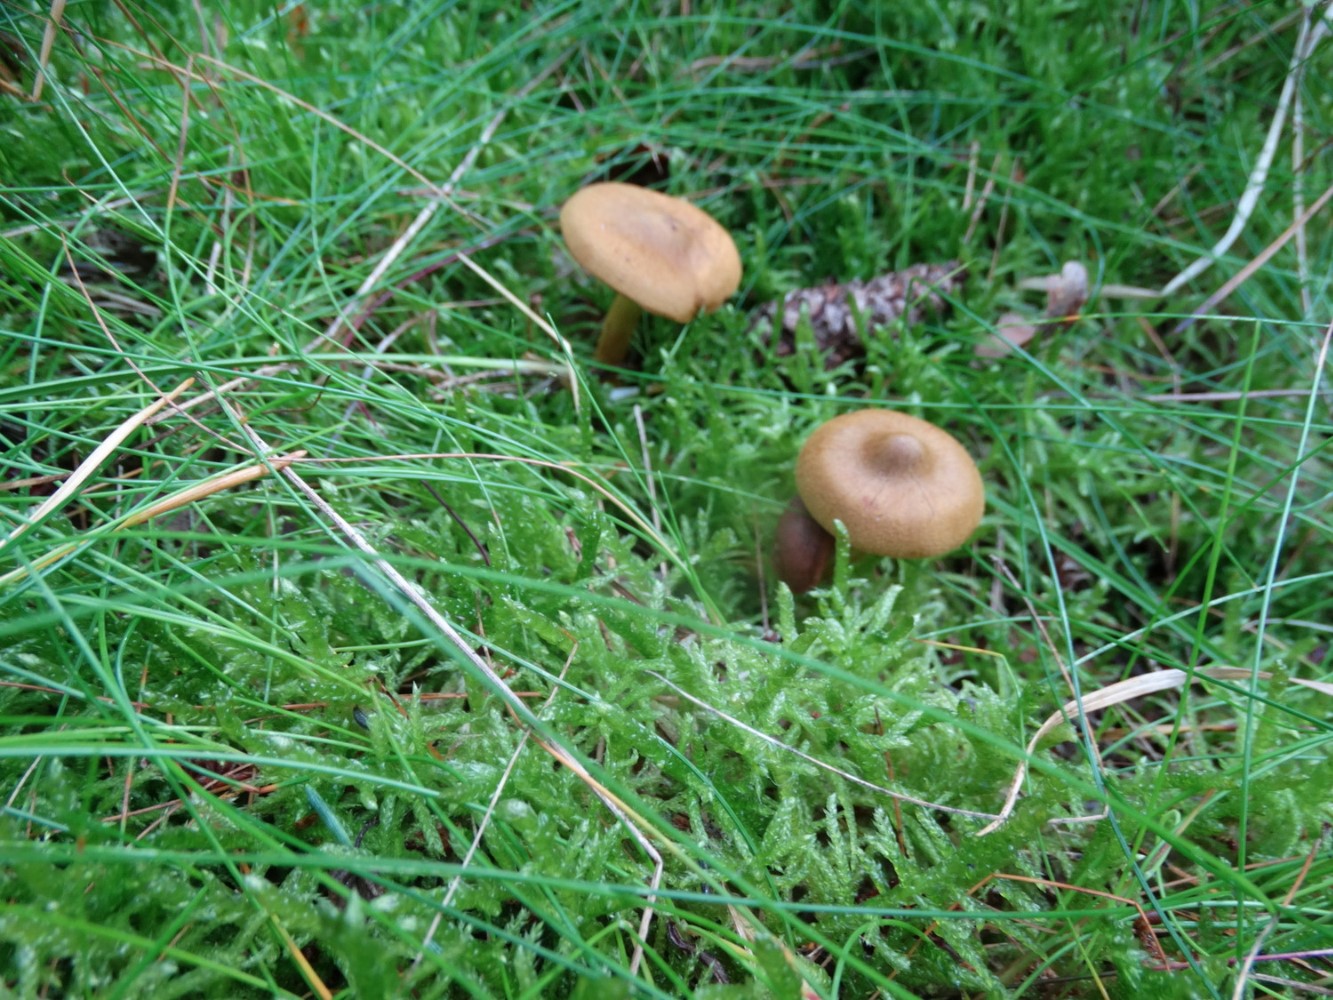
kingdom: Fungi
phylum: Basidiomycota
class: Agaricomycetes
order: Agaricales
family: Cortinariaceae
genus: Cortinarius
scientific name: Cortinarius
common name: cinnoberbladet slørhat
